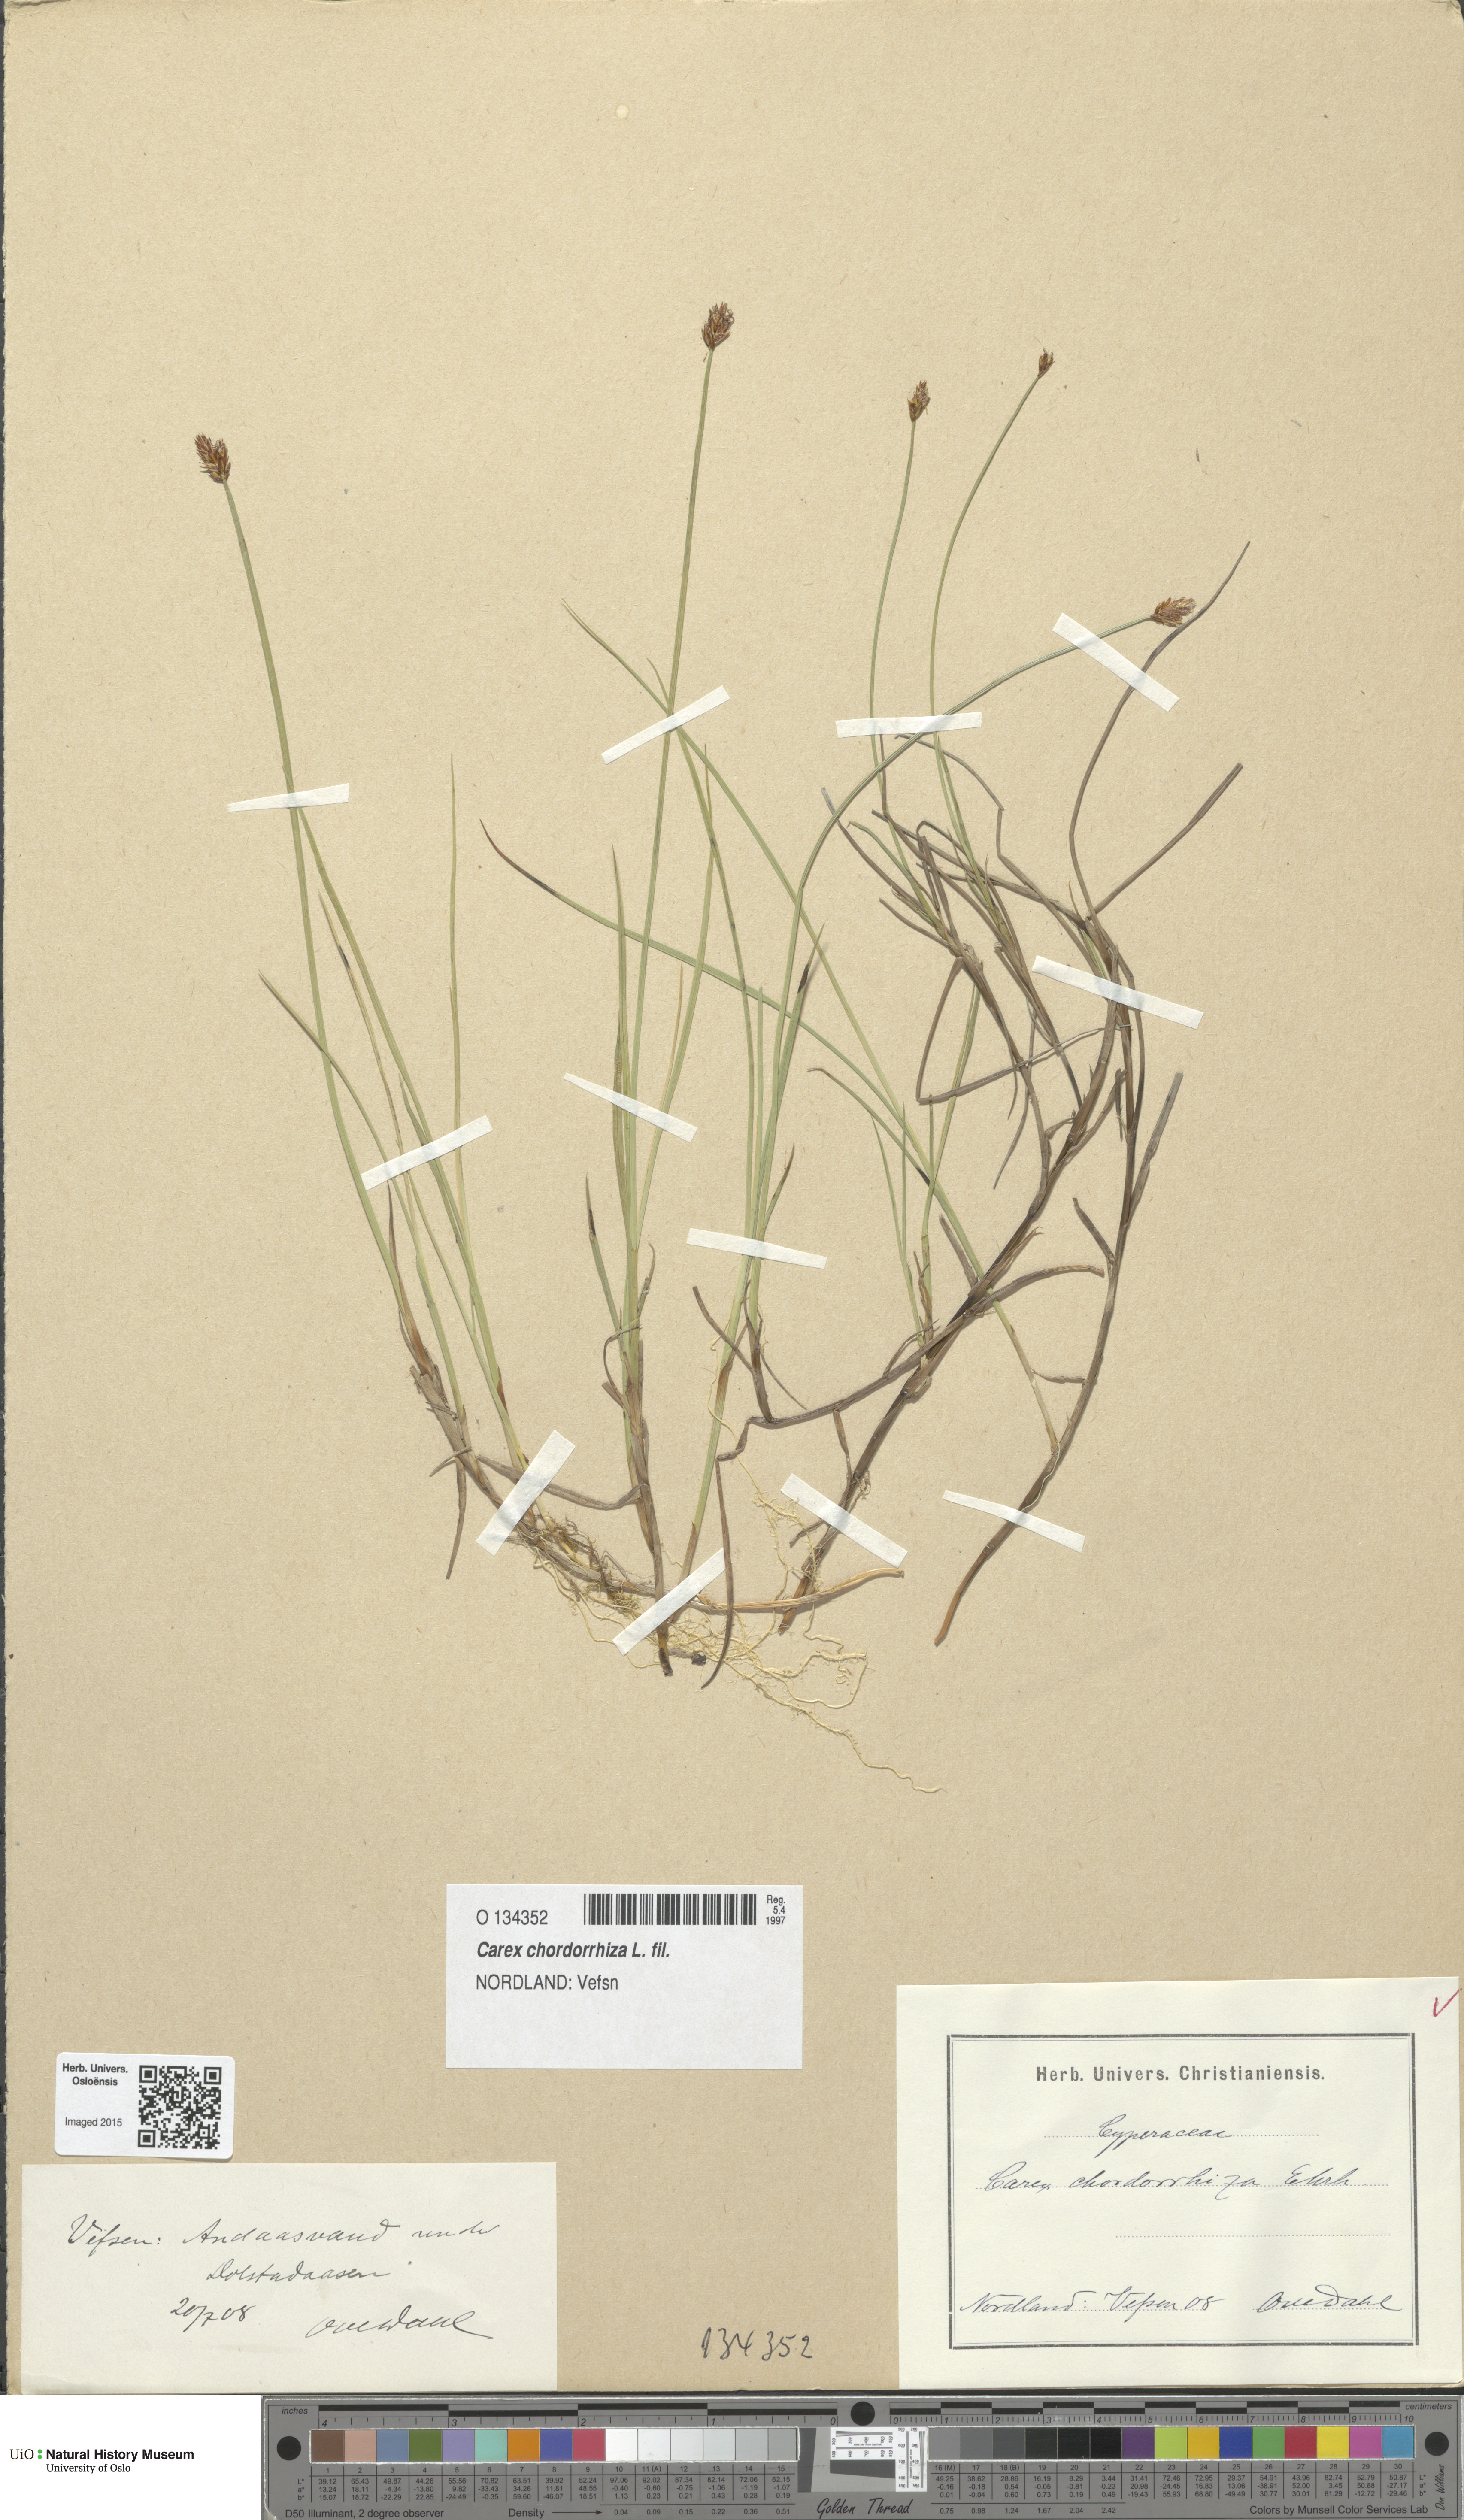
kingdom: Plantae
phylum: Tracheophyta
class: Liliopsida
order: Poales
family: Cyperaceae
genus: Carex
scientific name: Carex chordorrhiza
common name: String sedge
